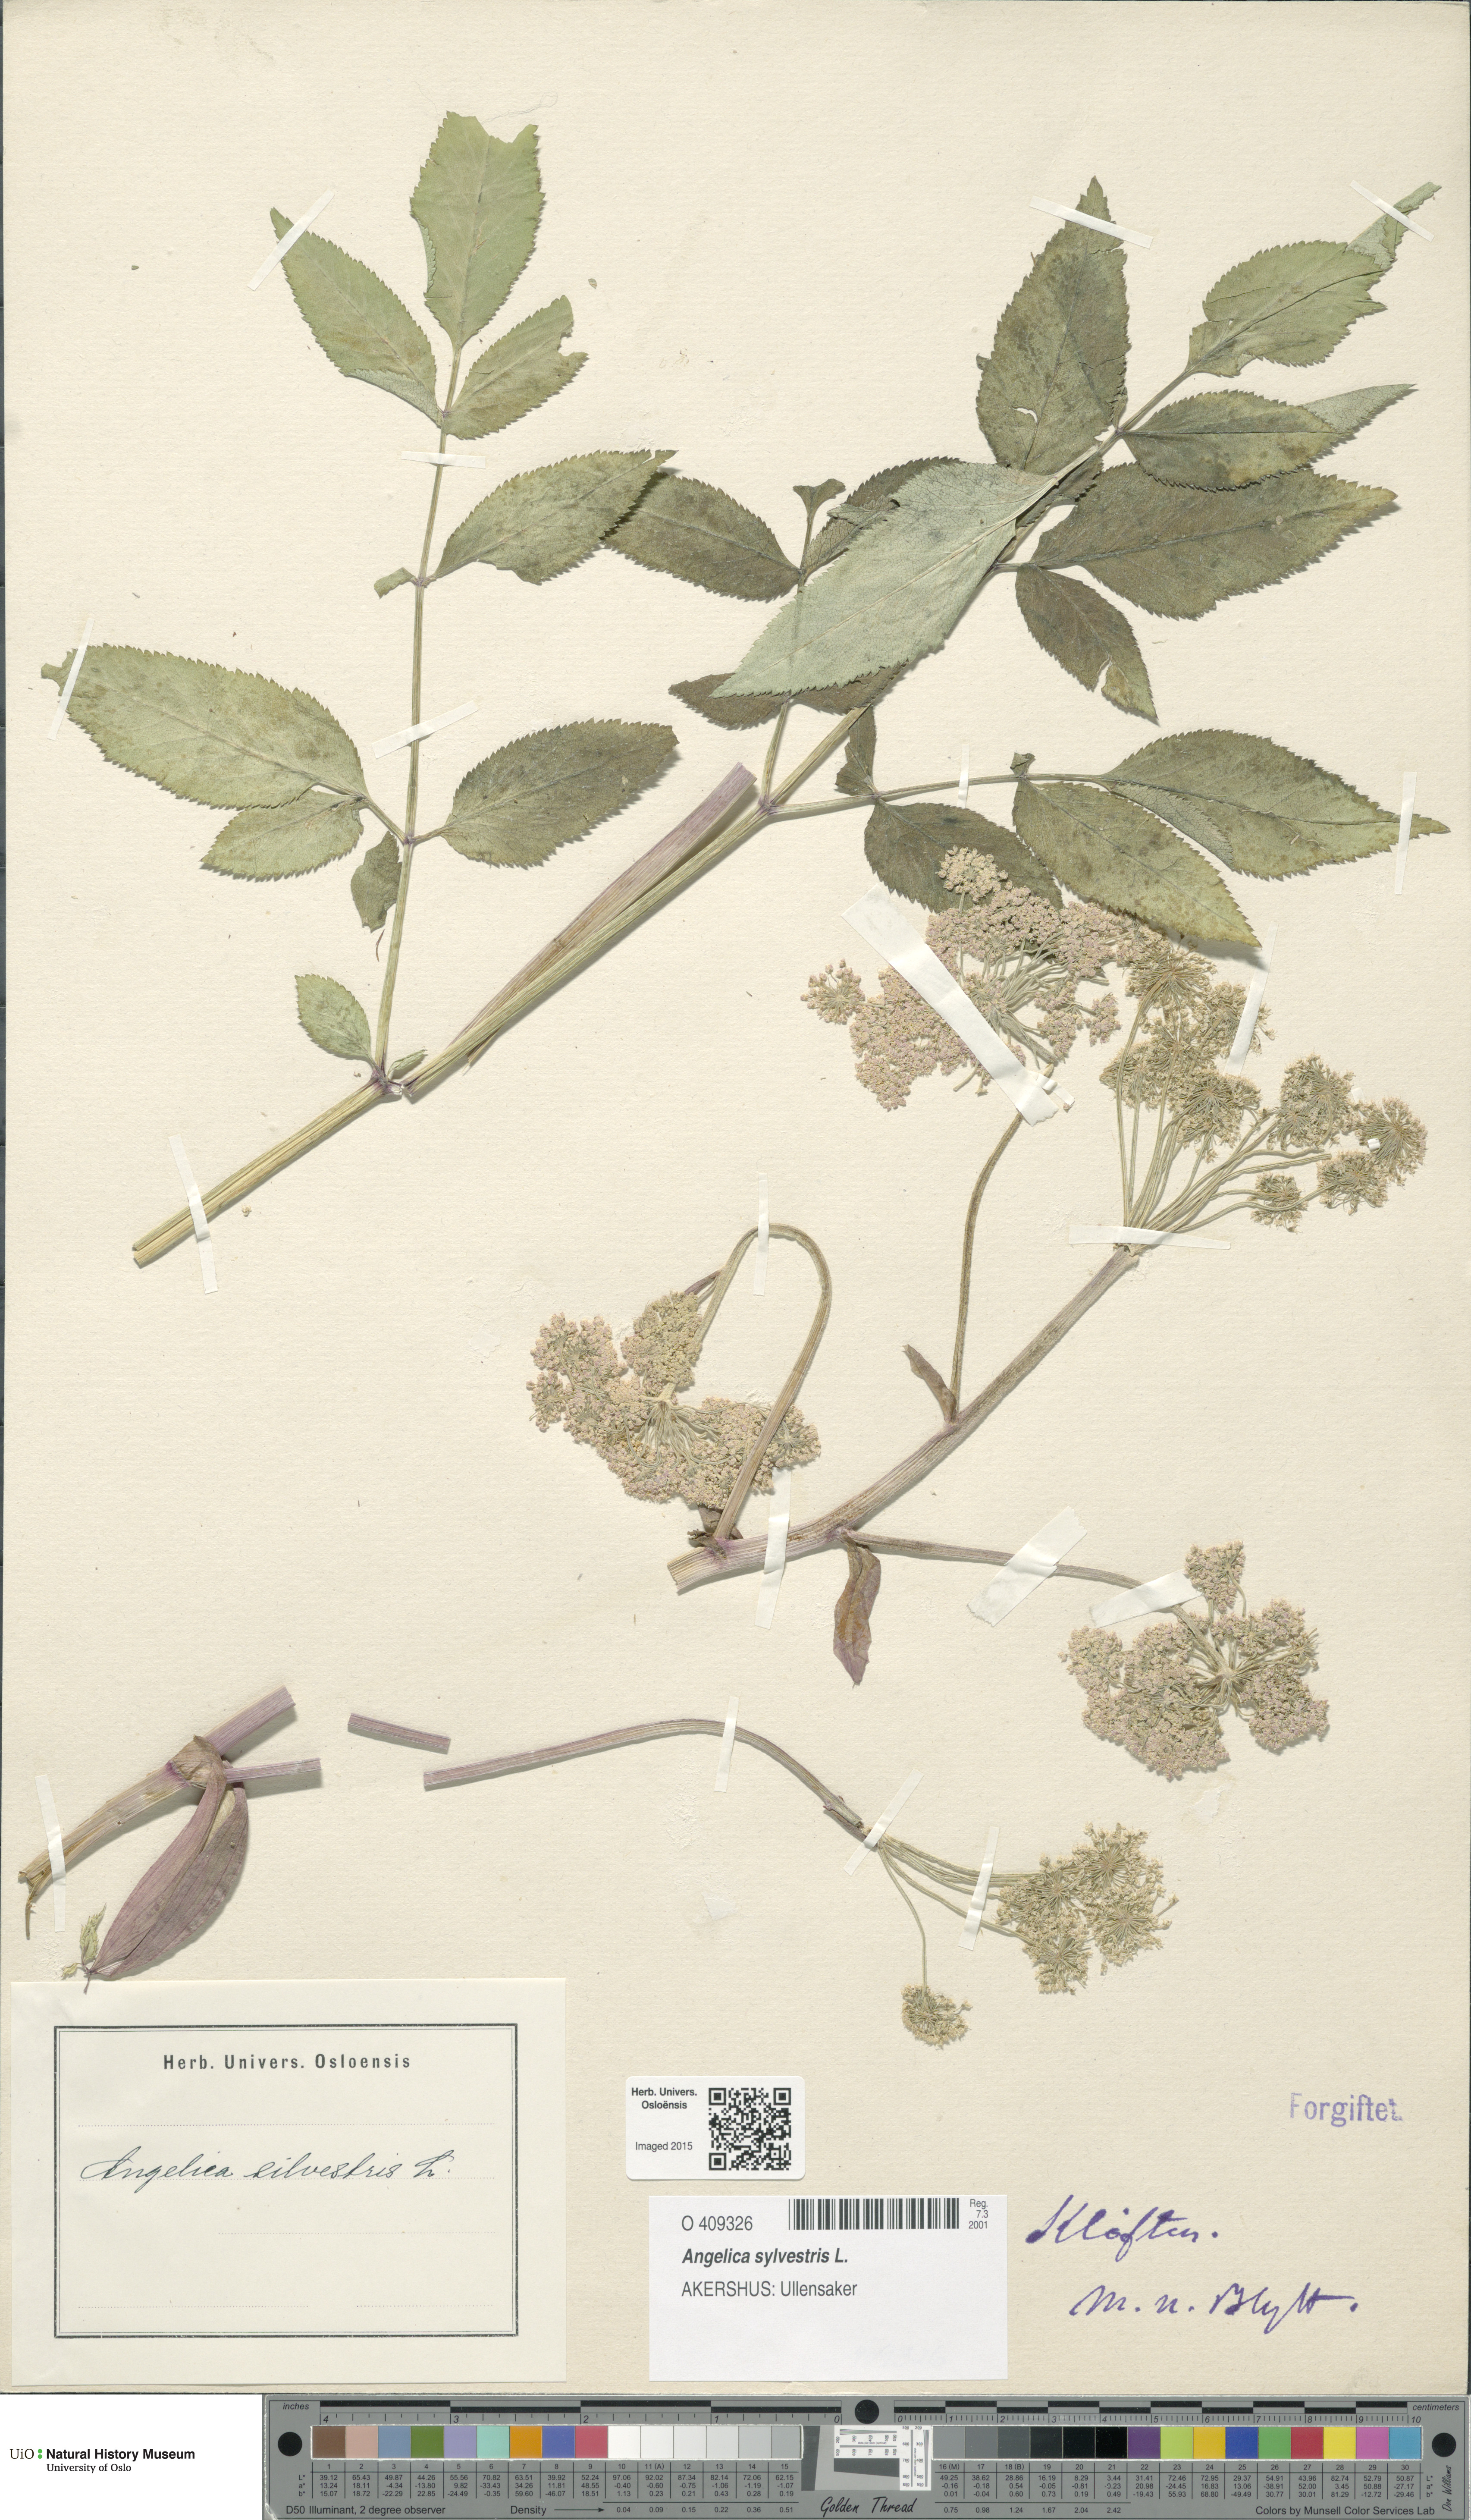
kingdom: Plantae
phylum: Tracheophyta
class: Magnoliopsida
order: Apiales
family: Apiaceae
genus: Angelica
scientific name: Angelica sylvestris
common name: Wild angelica
